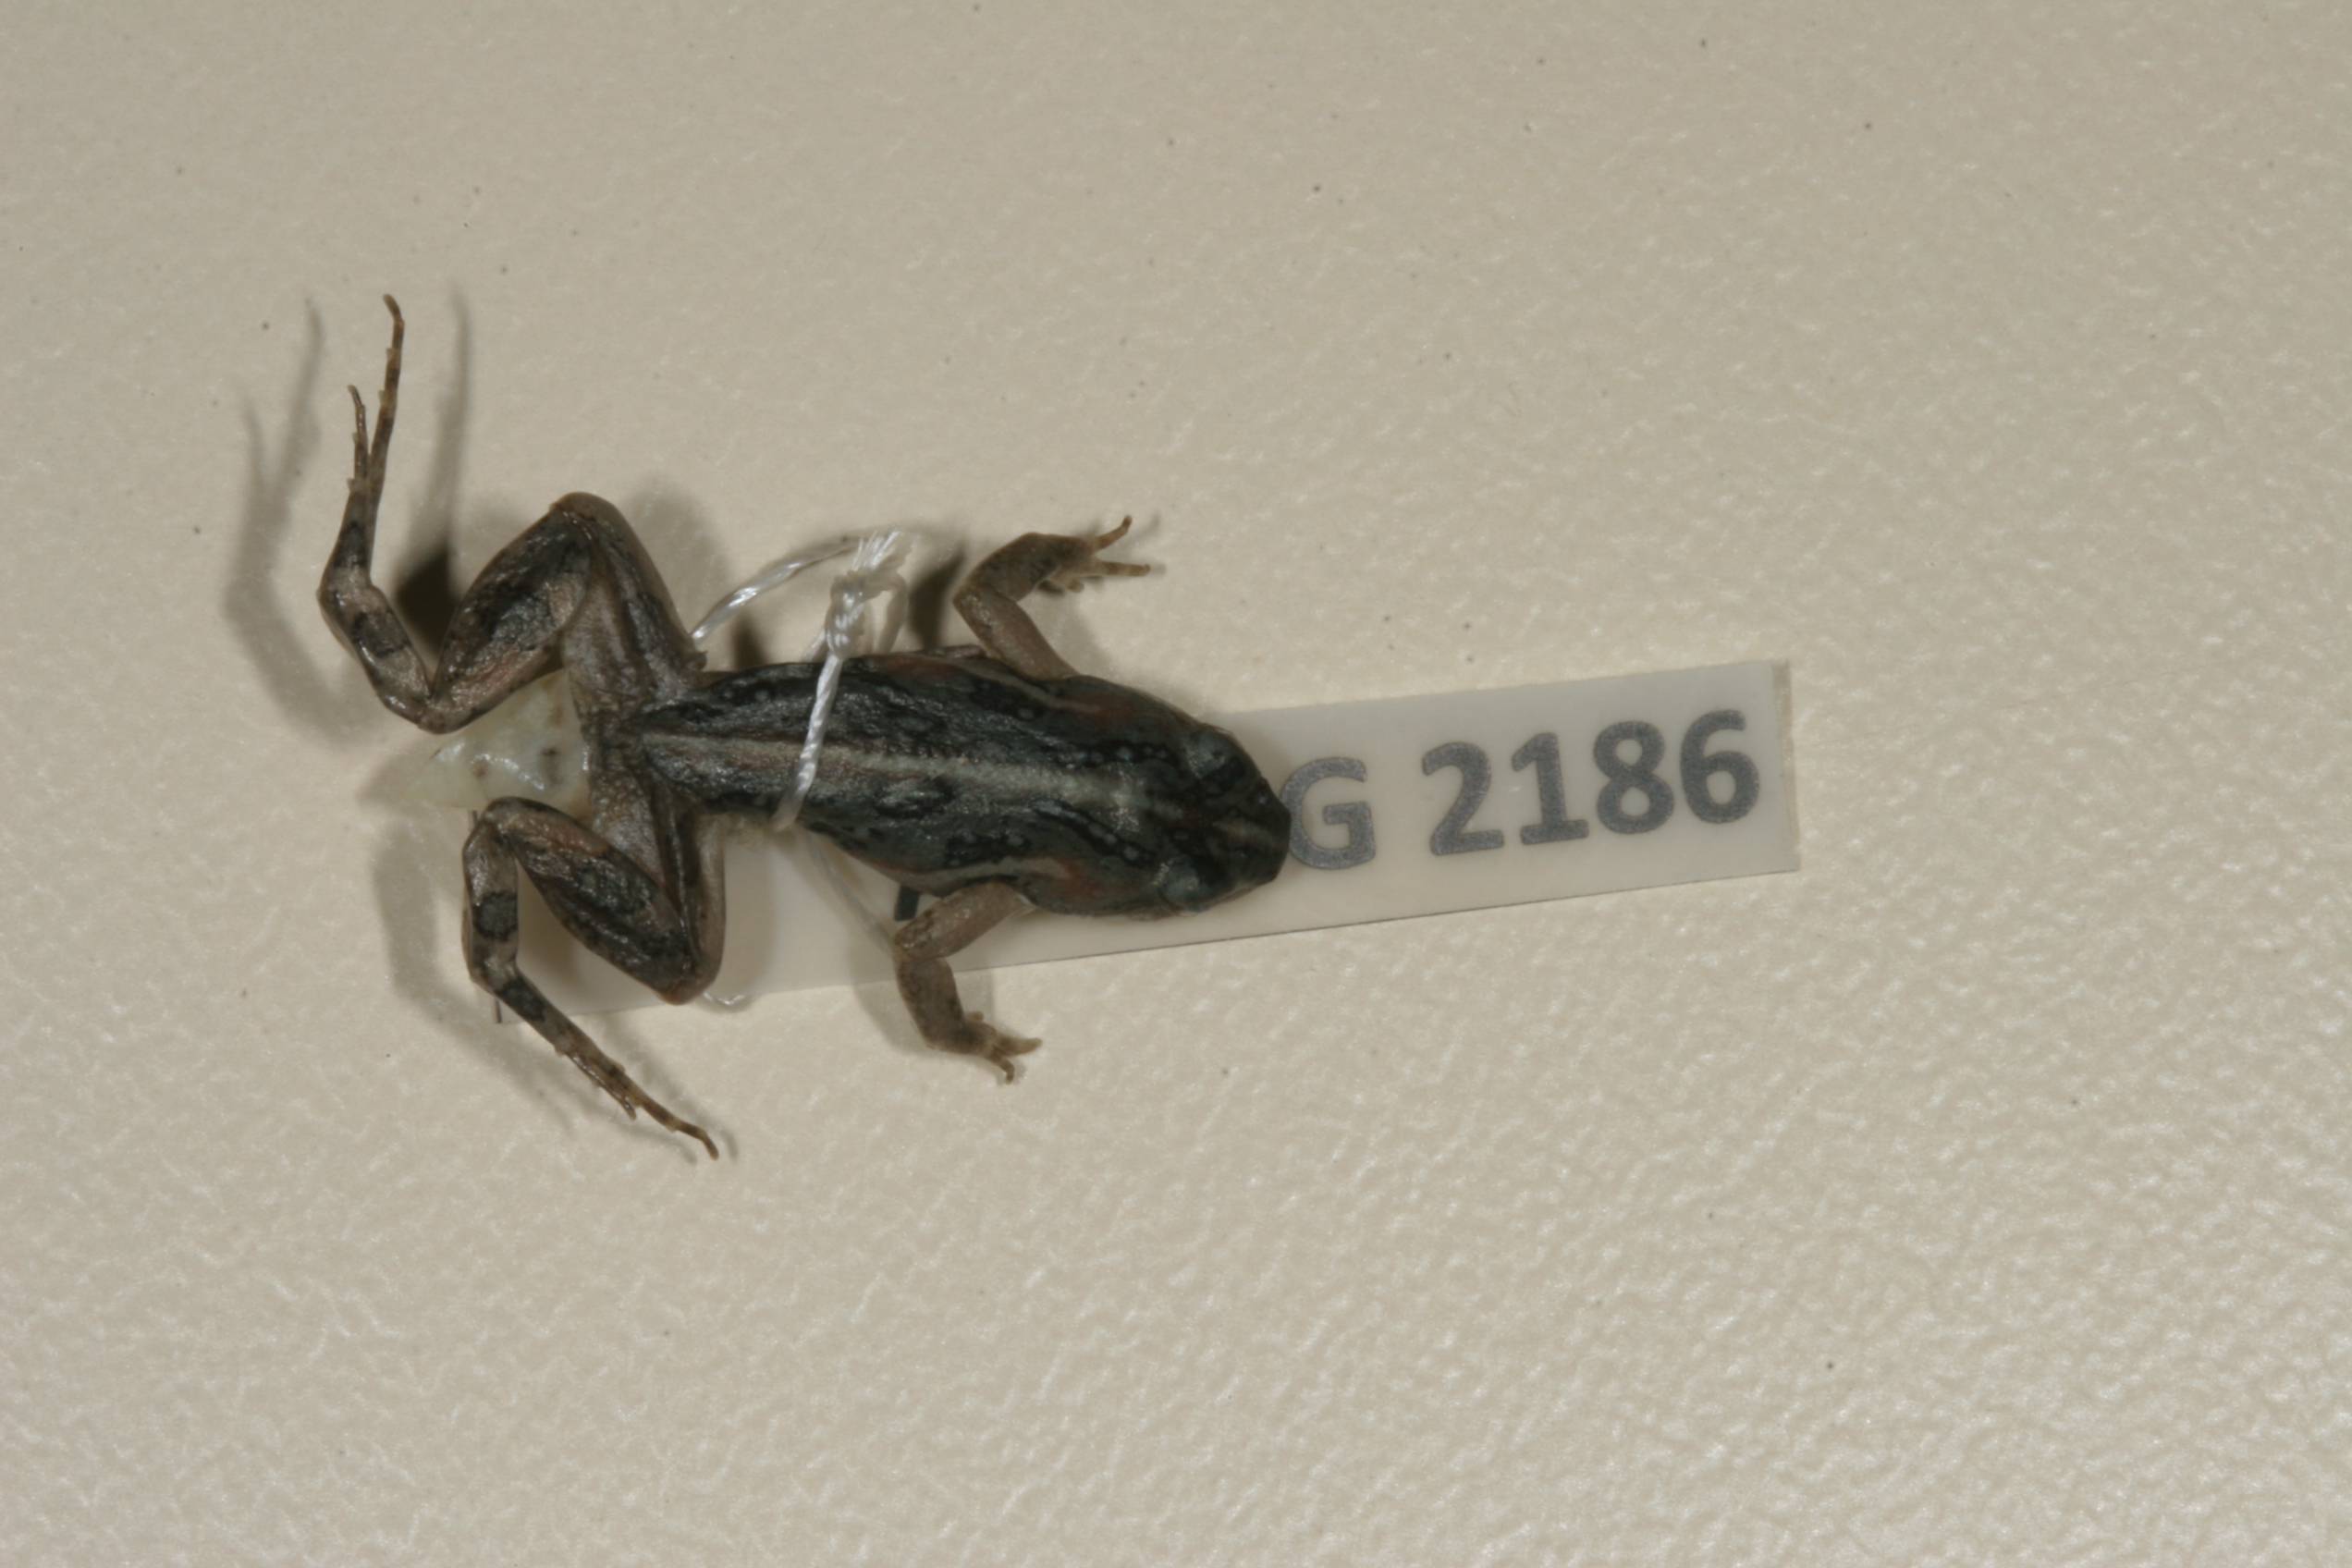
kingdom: Animalia
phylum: Chordata
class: Amphibia
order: Anura
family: Pyxicephalidae
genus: Cacosternum
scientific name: Cacosternum boettgeri
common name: Boettger's frog
